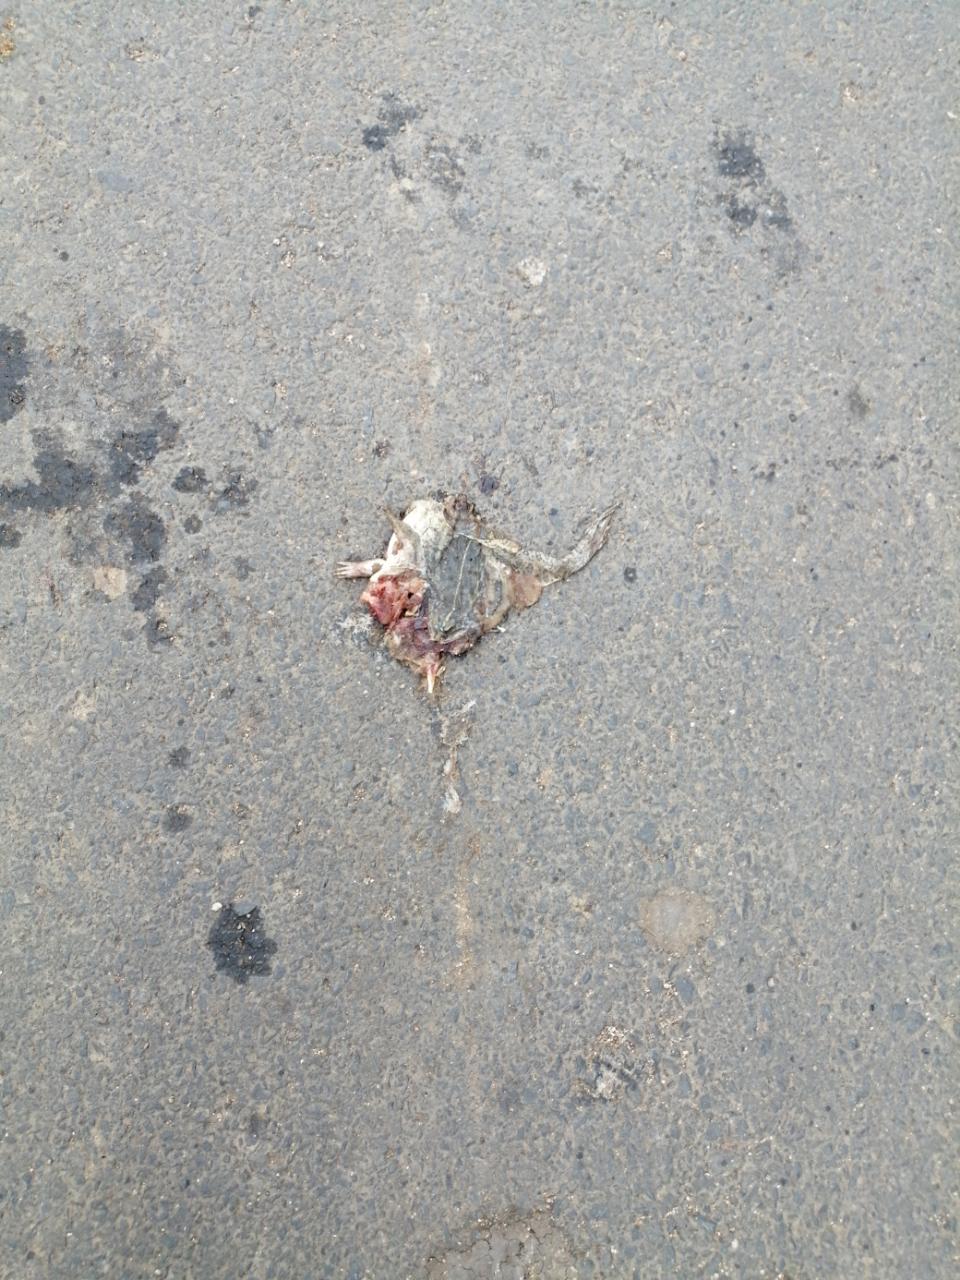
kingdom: Animalia
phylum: Chordata
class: Amphibia
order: Anura
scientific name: Anura
